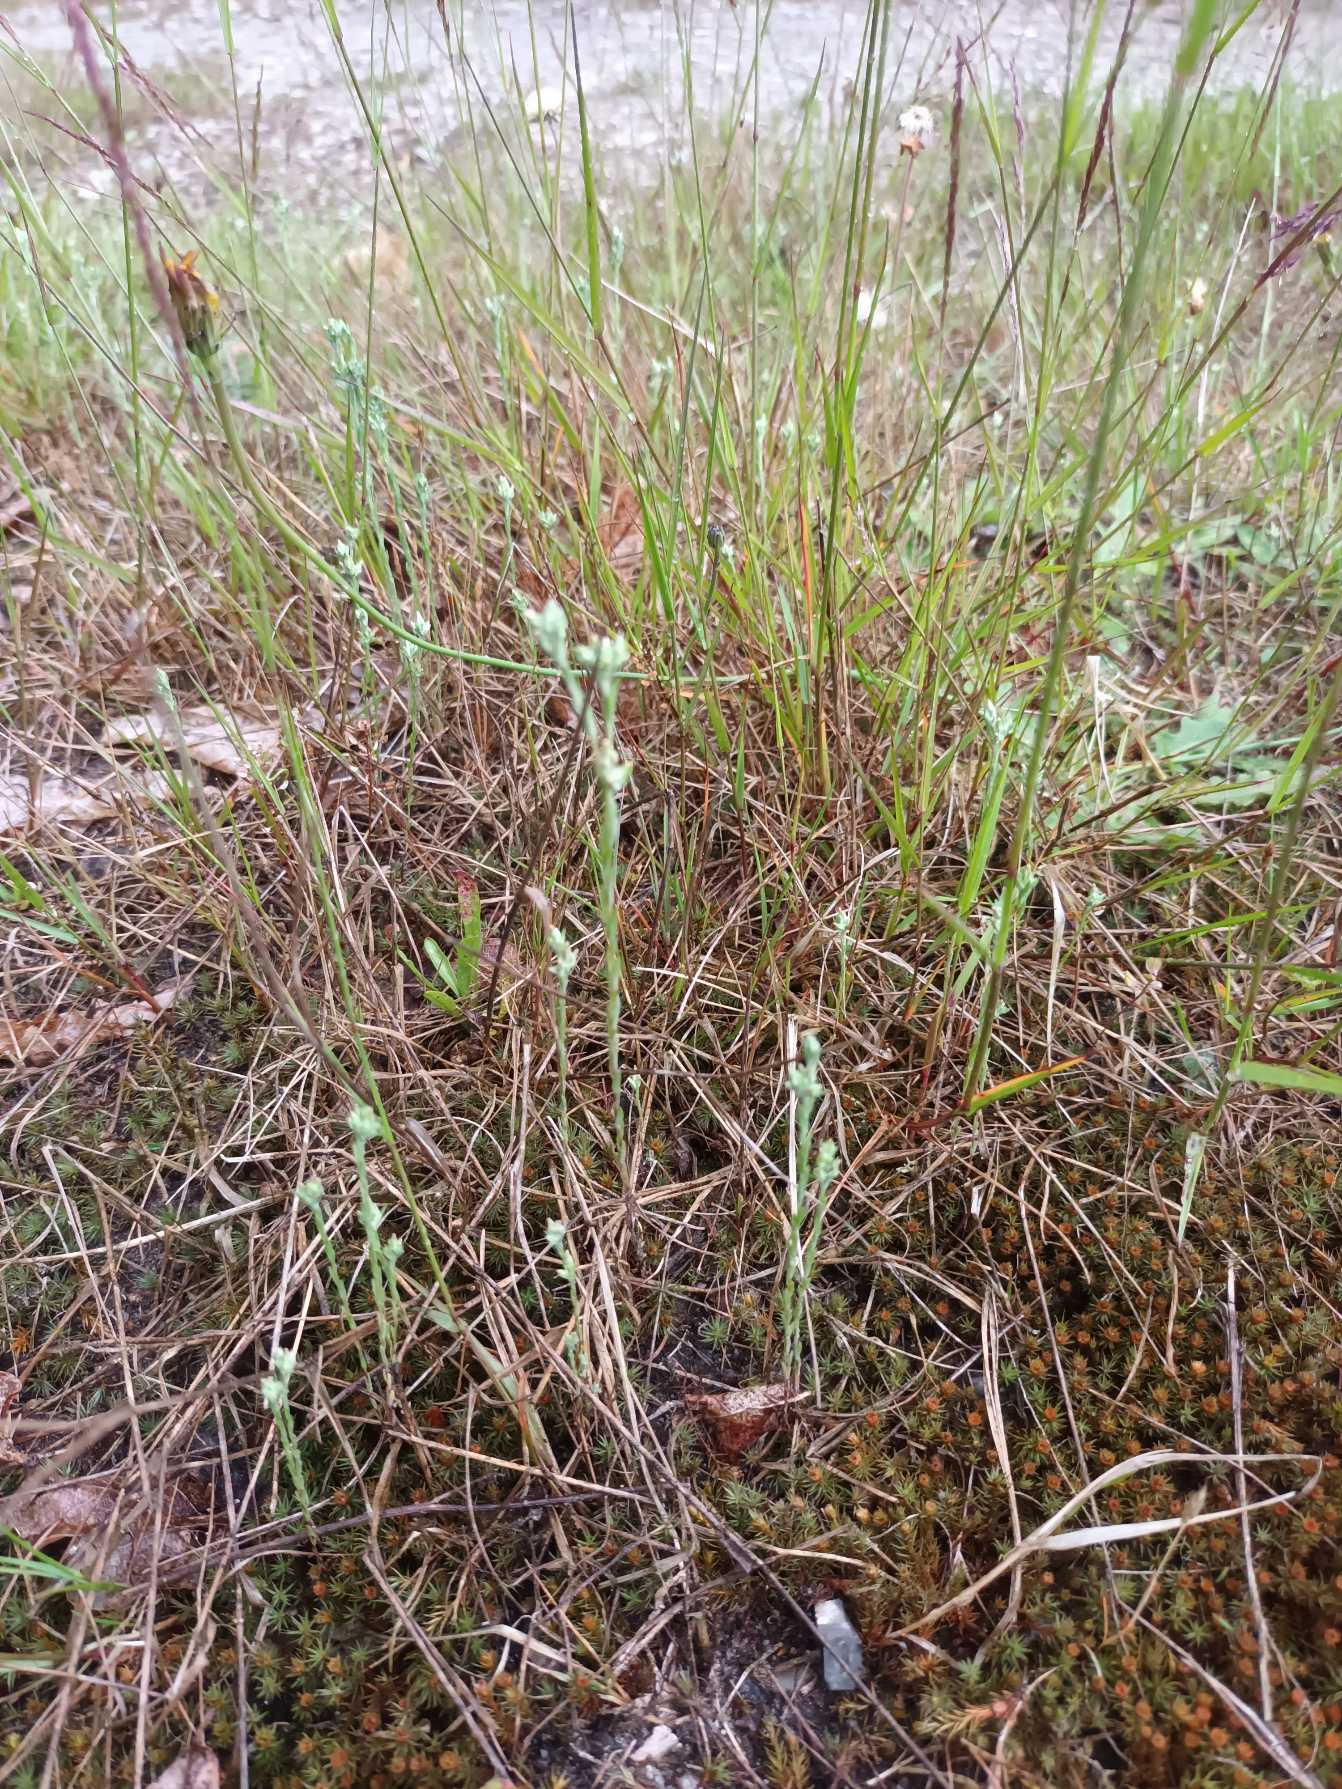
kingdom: Plantae
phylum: Tracheophyta
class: Magnoliopsida
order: Asterales
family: Asteraceae
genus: Logfia
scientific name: Logfia minima
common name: Liden museurt
